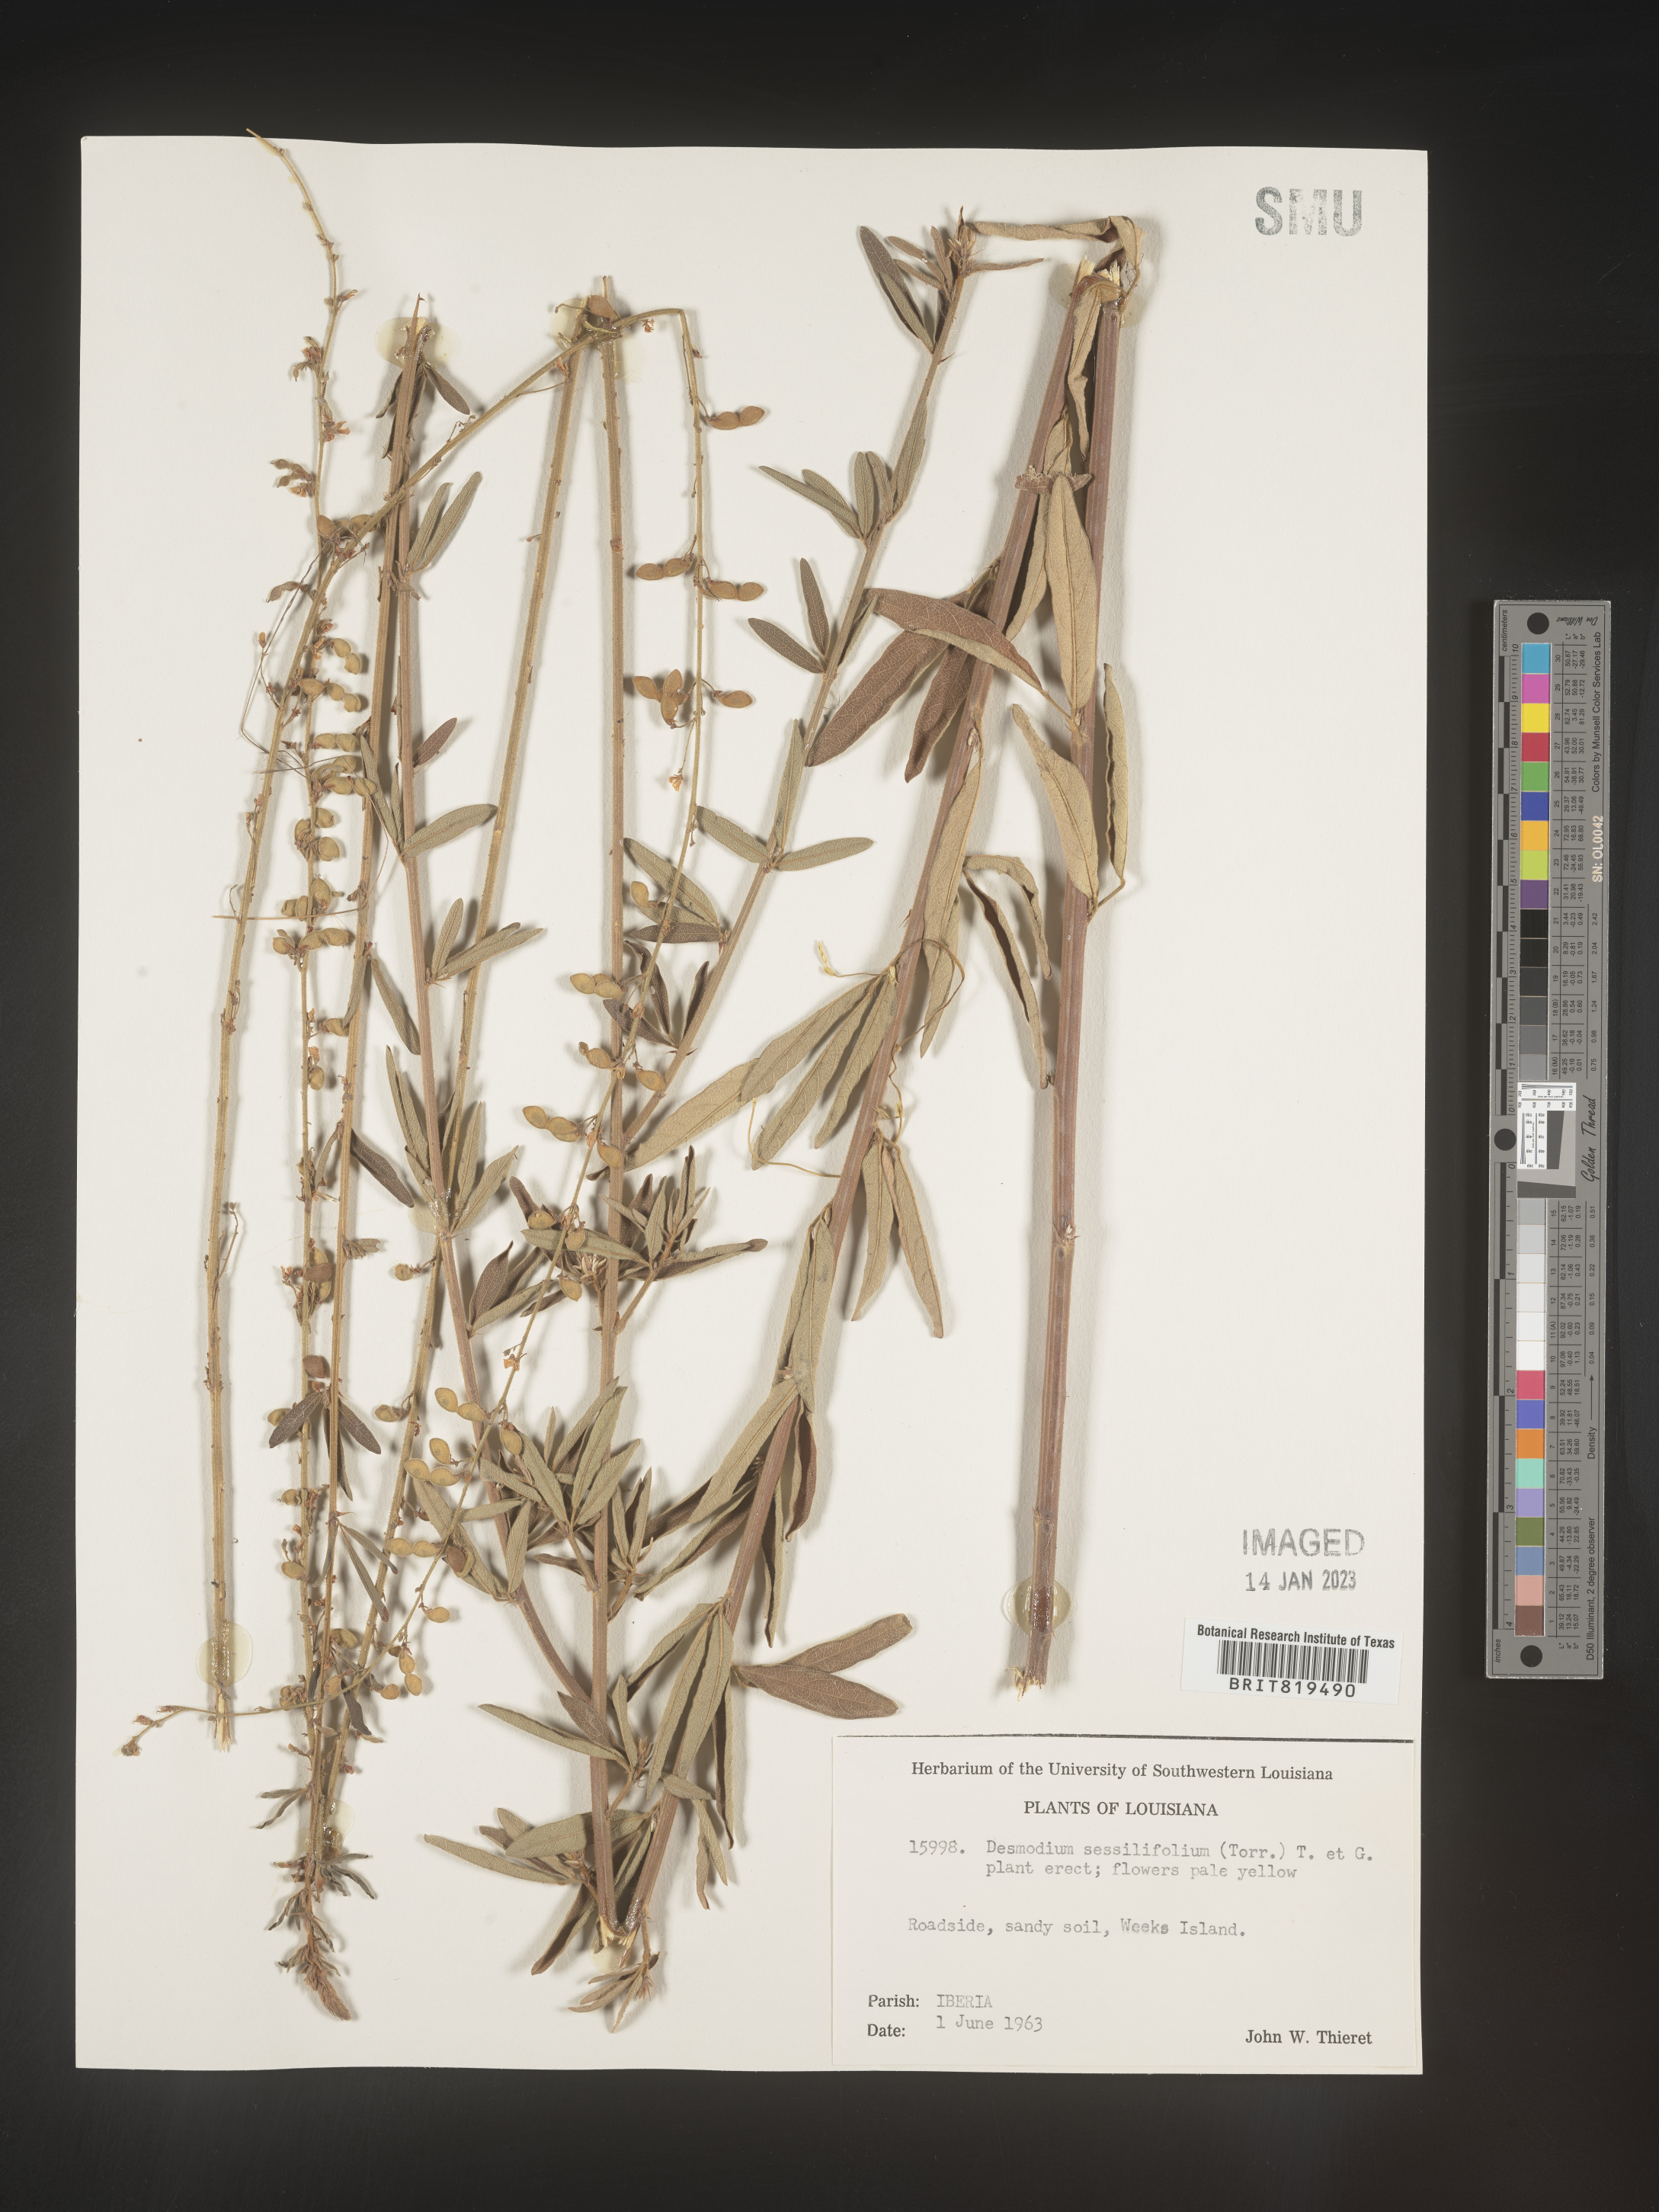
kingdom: Plantae
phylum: Tracheophyta
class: Magnoliopsida
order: Fabales
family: Fabaceae
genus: Desmodium
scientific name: Desmodium sessilifolium
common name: Sessile tick-clover
